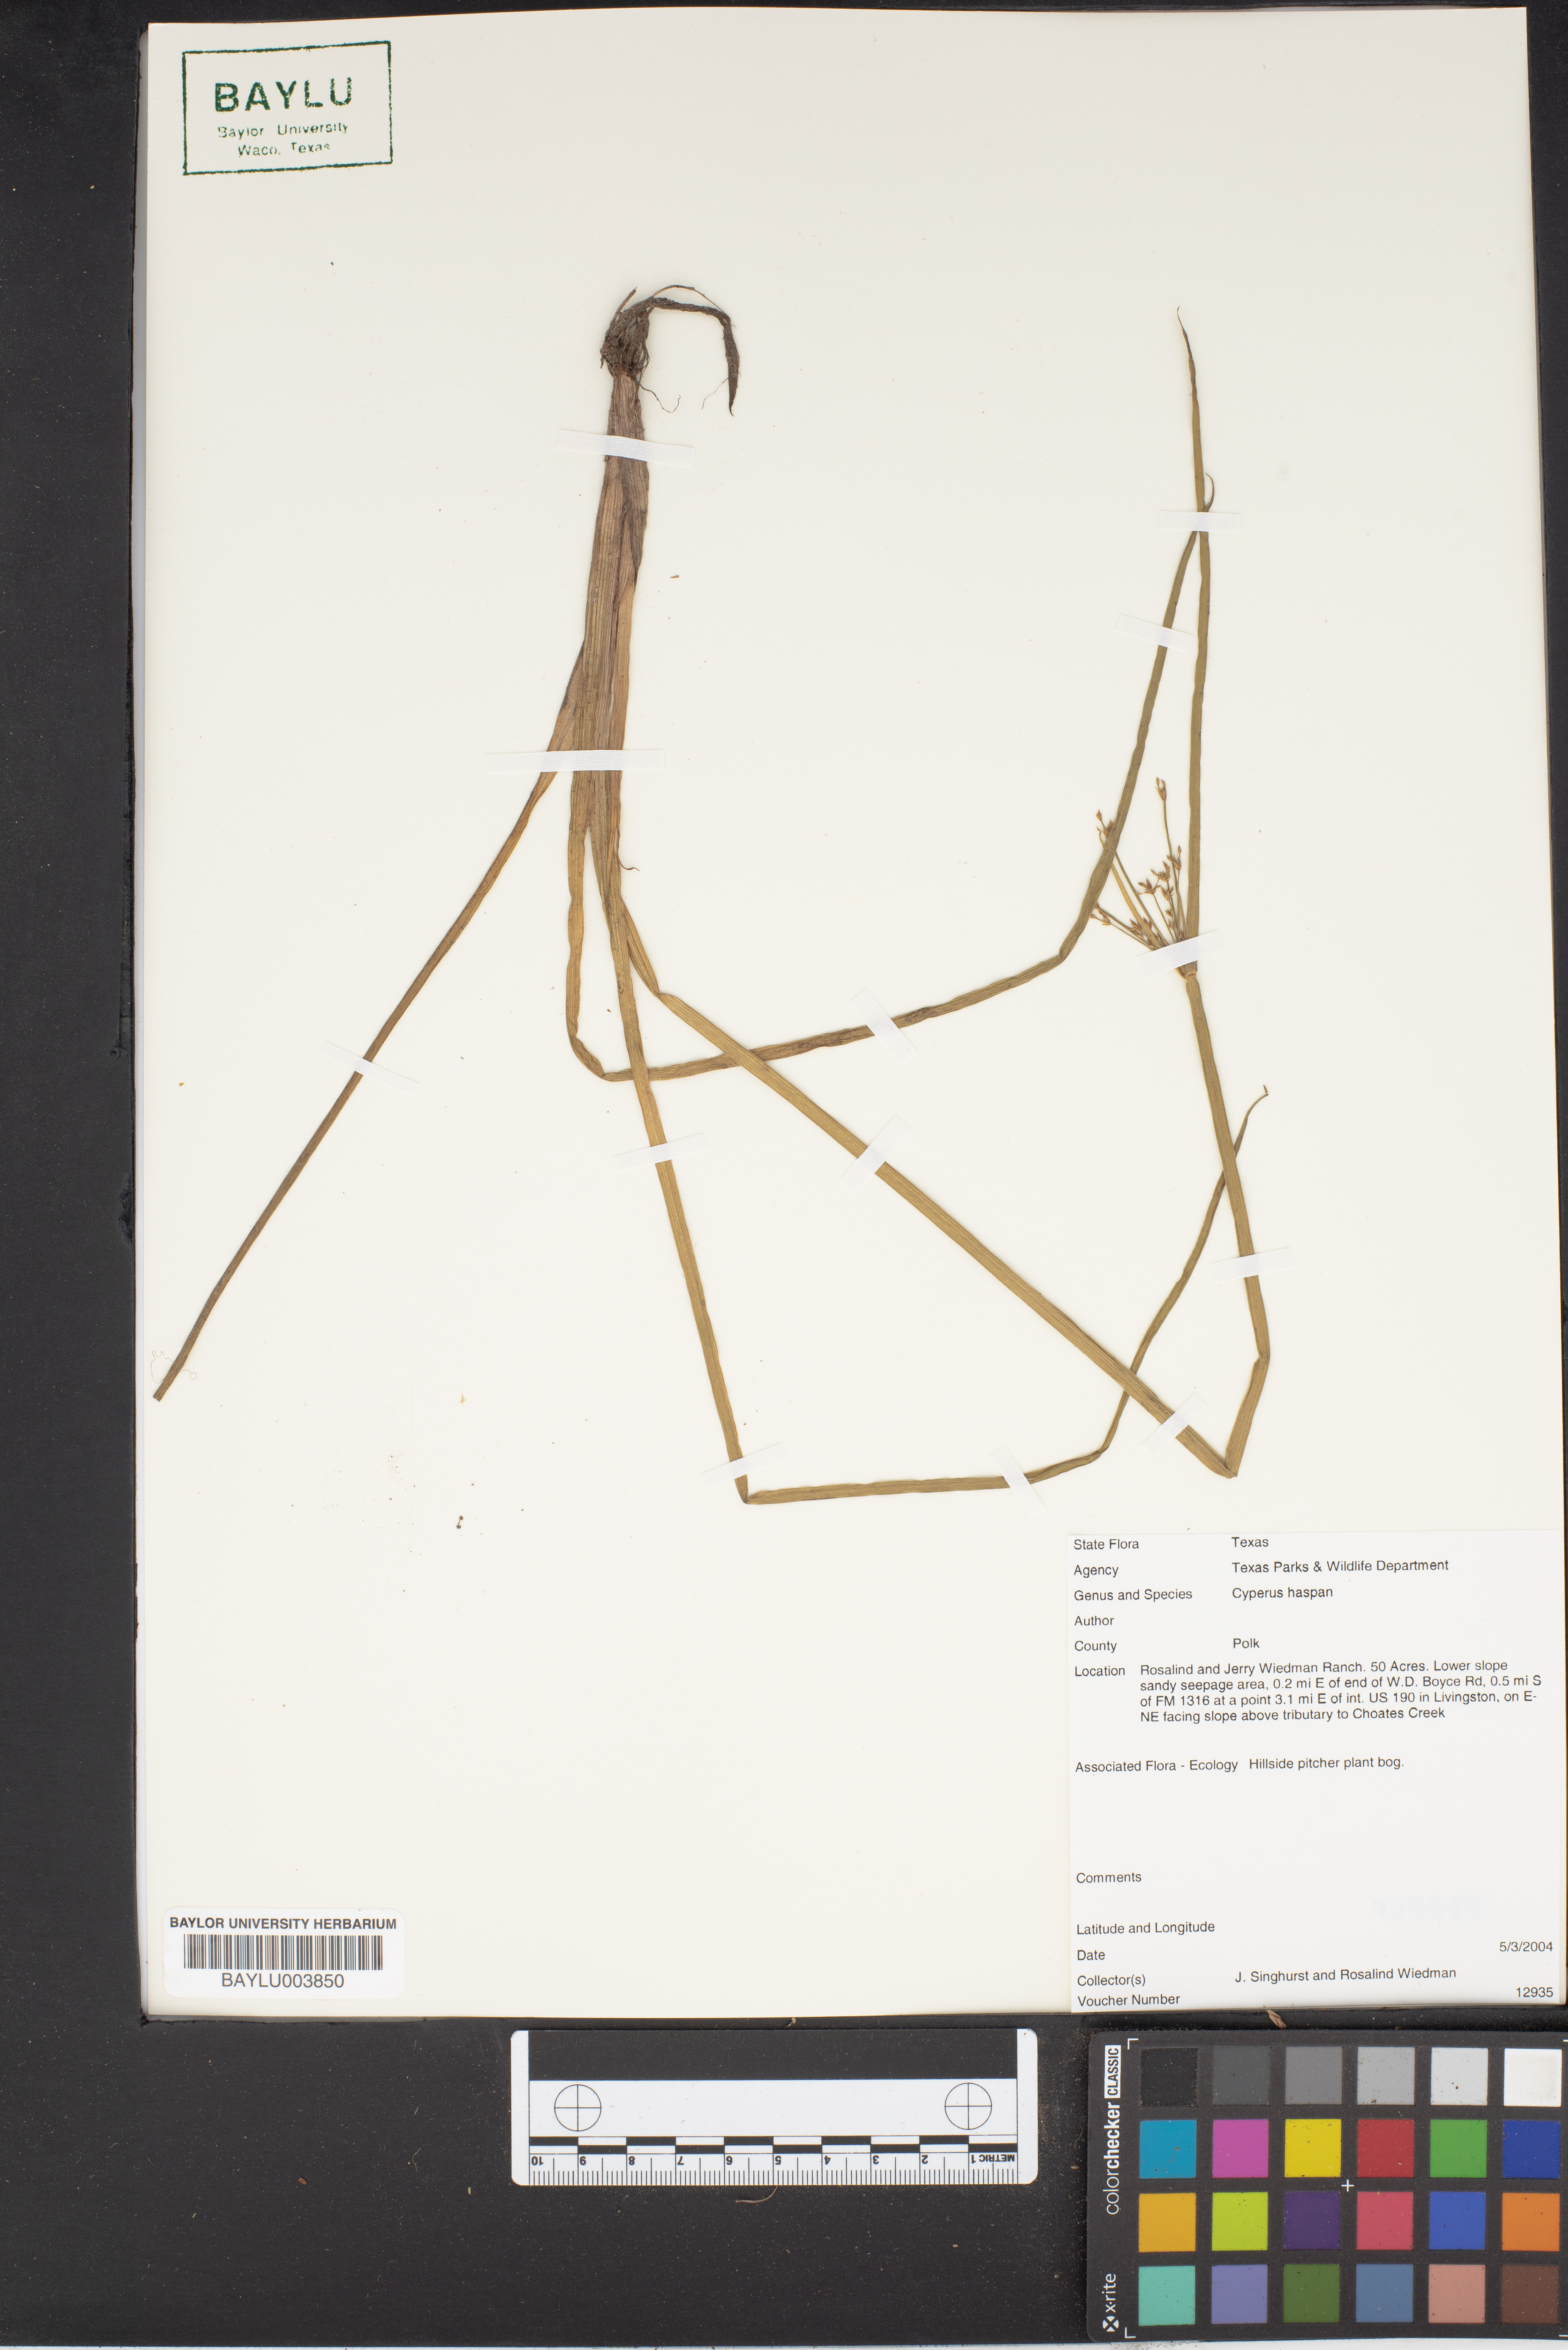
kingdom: Plantae
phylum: Tracheophyta
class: Liliopsida
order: Poales
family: Cyperaceae
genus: Cyperus
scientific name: Cyperus haspan
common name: Haspan flatsedge
